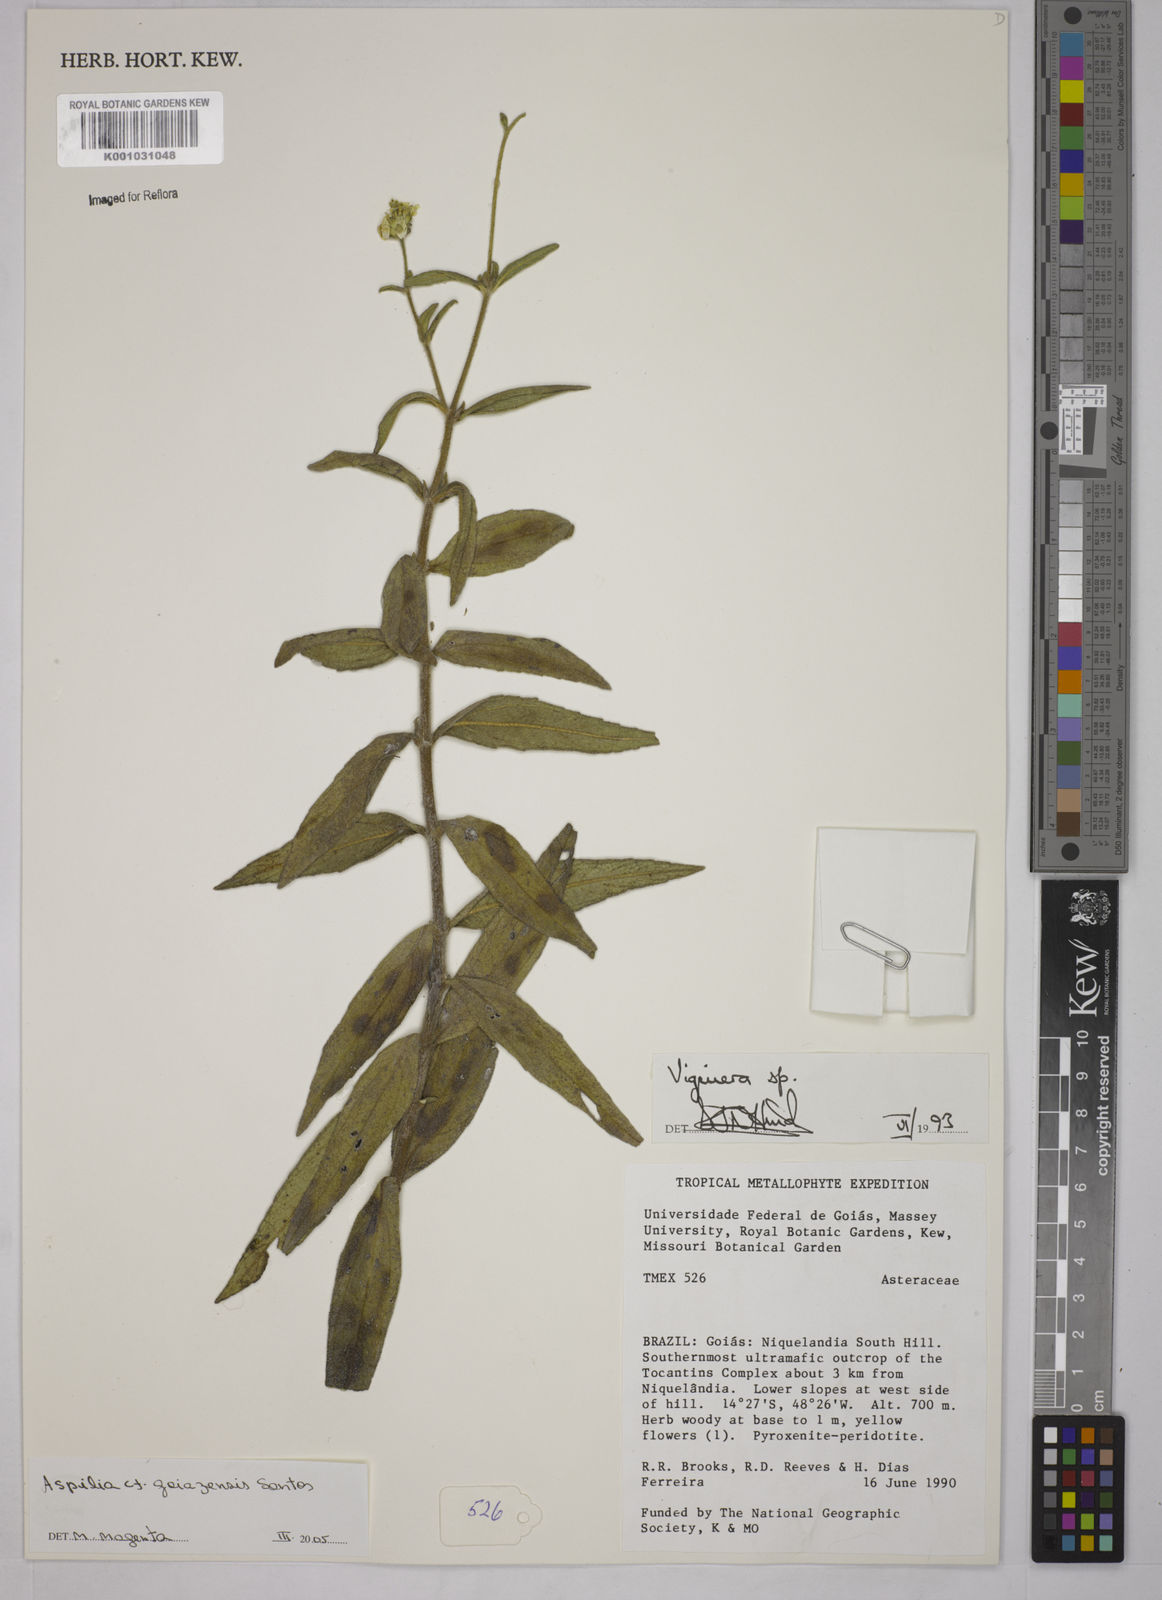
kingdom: Plantae
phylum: Tracheophyta
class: Magnoliopsida
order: Asterales
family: Asteraceae
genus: Aspilia
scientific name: Aspilia goiazensis
